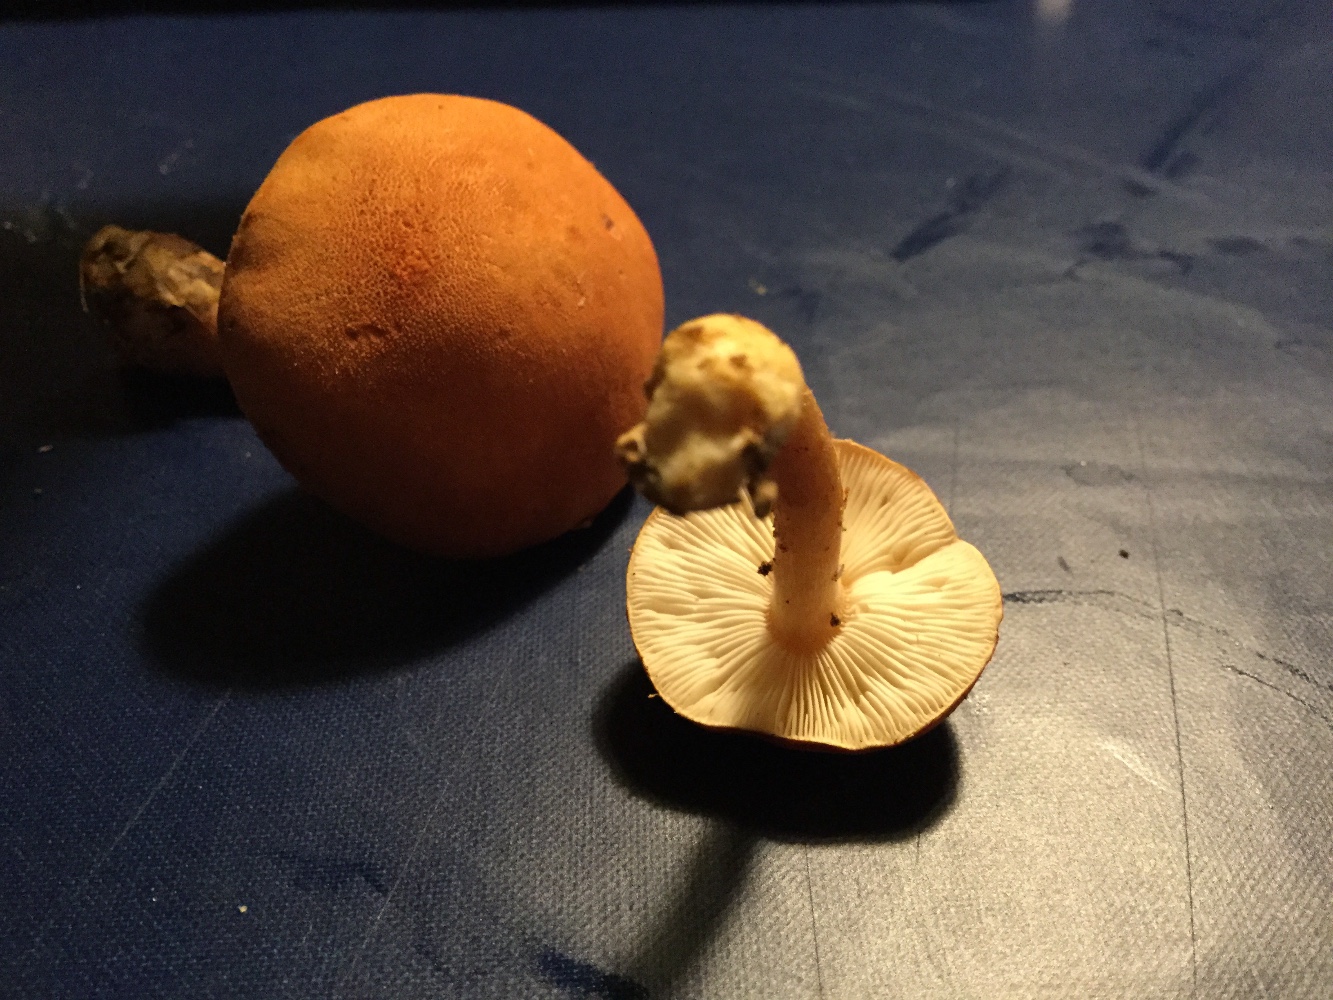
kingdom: Fungi
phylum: Basidiomycota
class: Agaricomycetes
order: Agaricales
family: Agaricaceae
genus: Cystodermella
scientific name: Cystodermella
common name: grynhat
